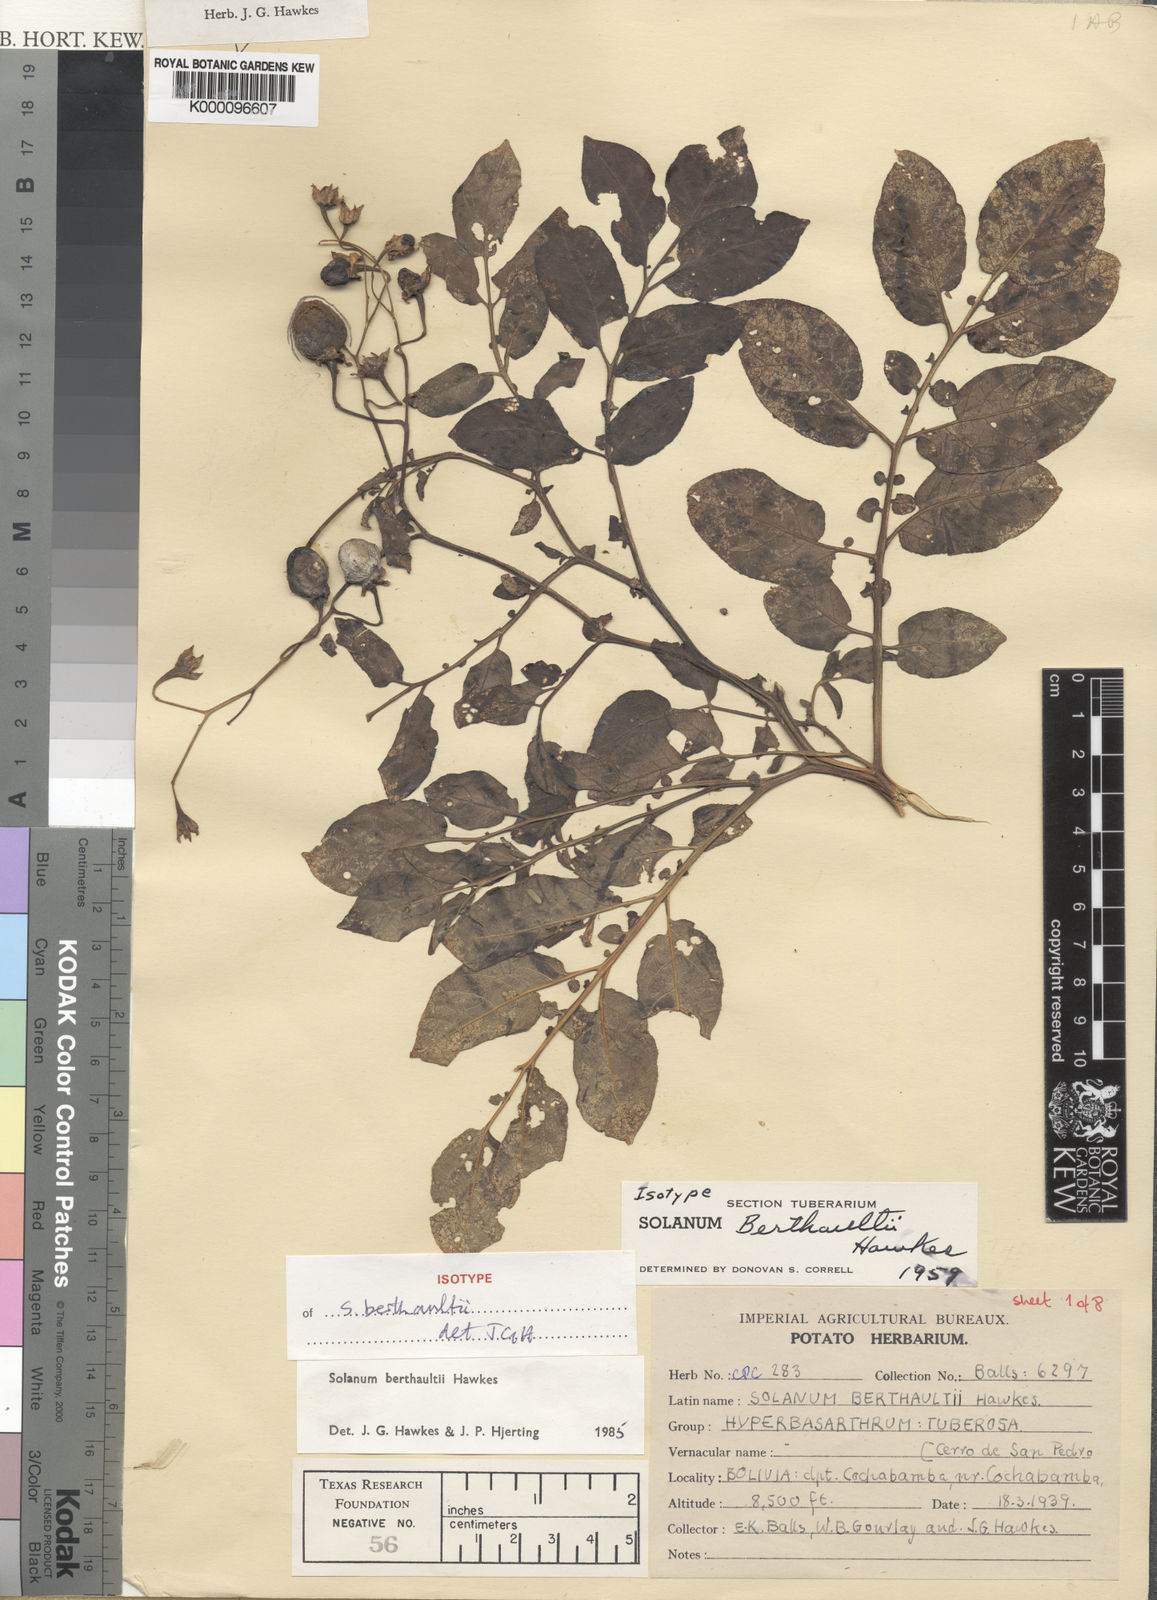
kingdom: Plantae
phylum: Tracheophyta
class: Magnoliopsida
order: Solanales
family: Solanaceae
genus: Solanum
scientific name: Solanum berthaultii
